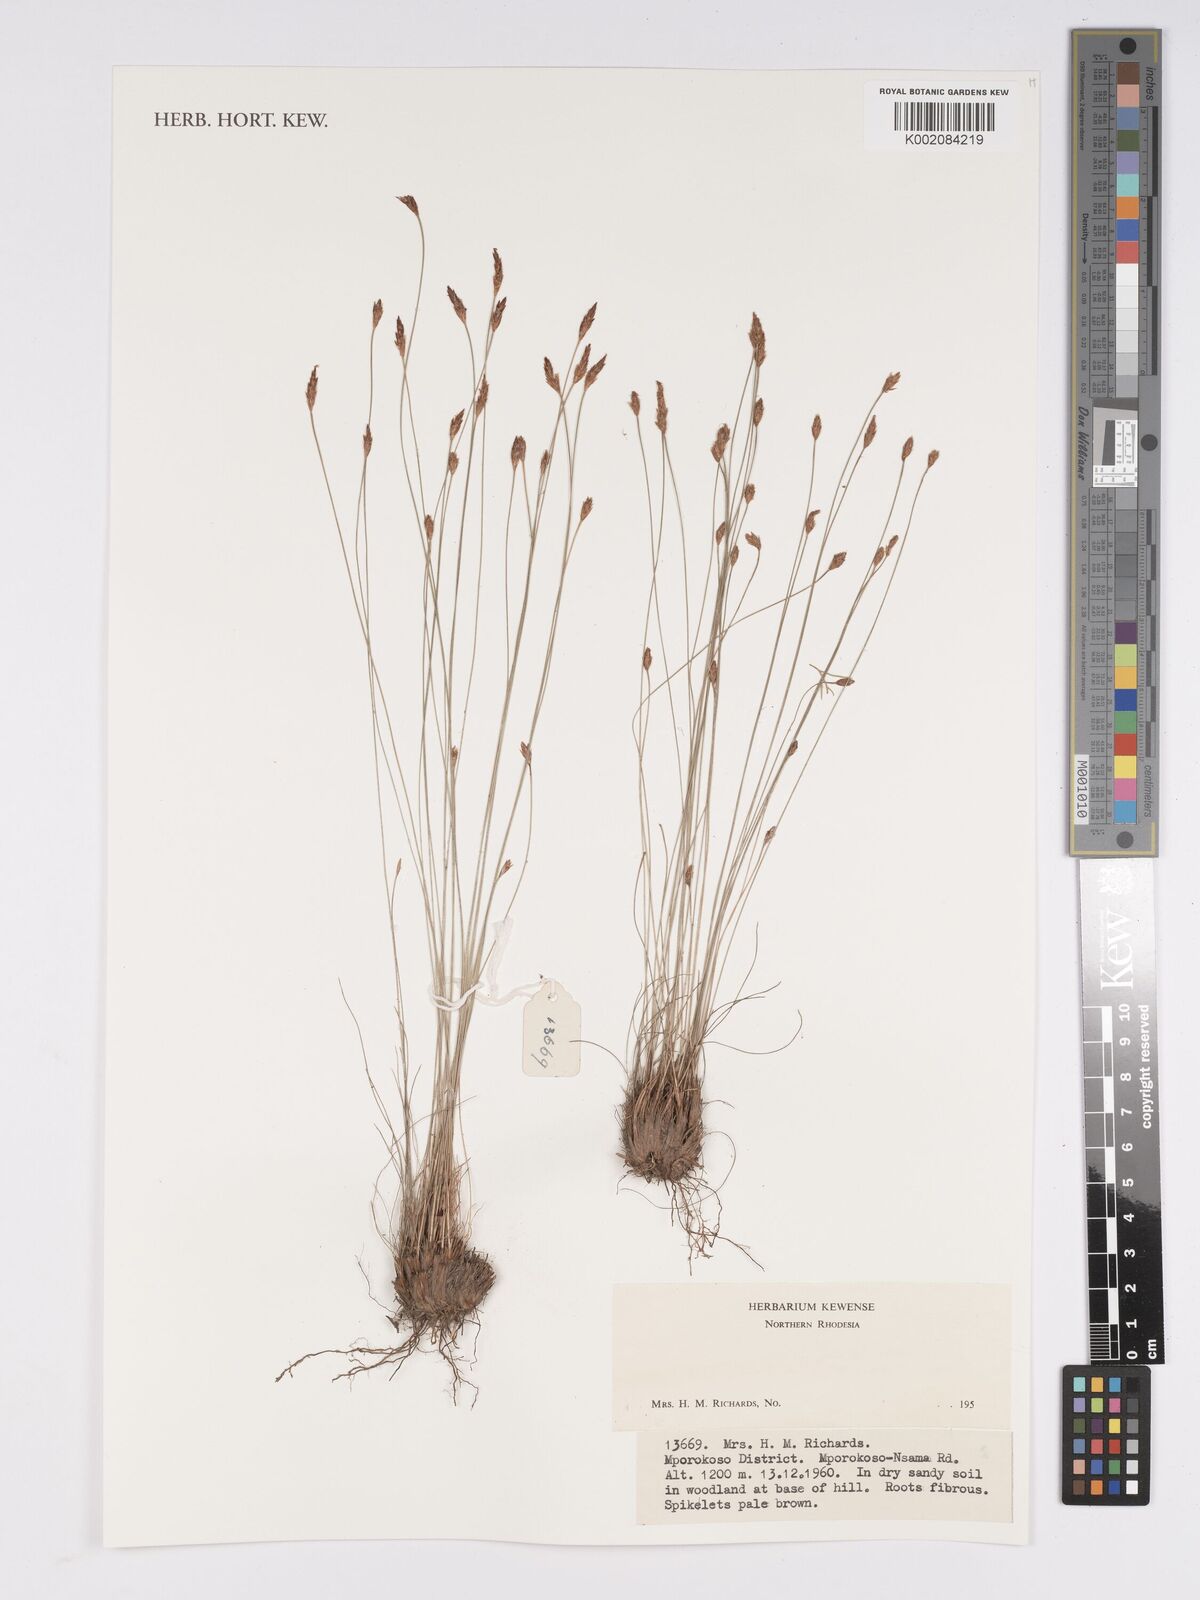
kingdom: Plantae
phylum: Tracheophyta
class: Liliopsida
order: Poales
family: Cyperaceae
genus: Bulbostylis
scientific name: Bulbostylis
